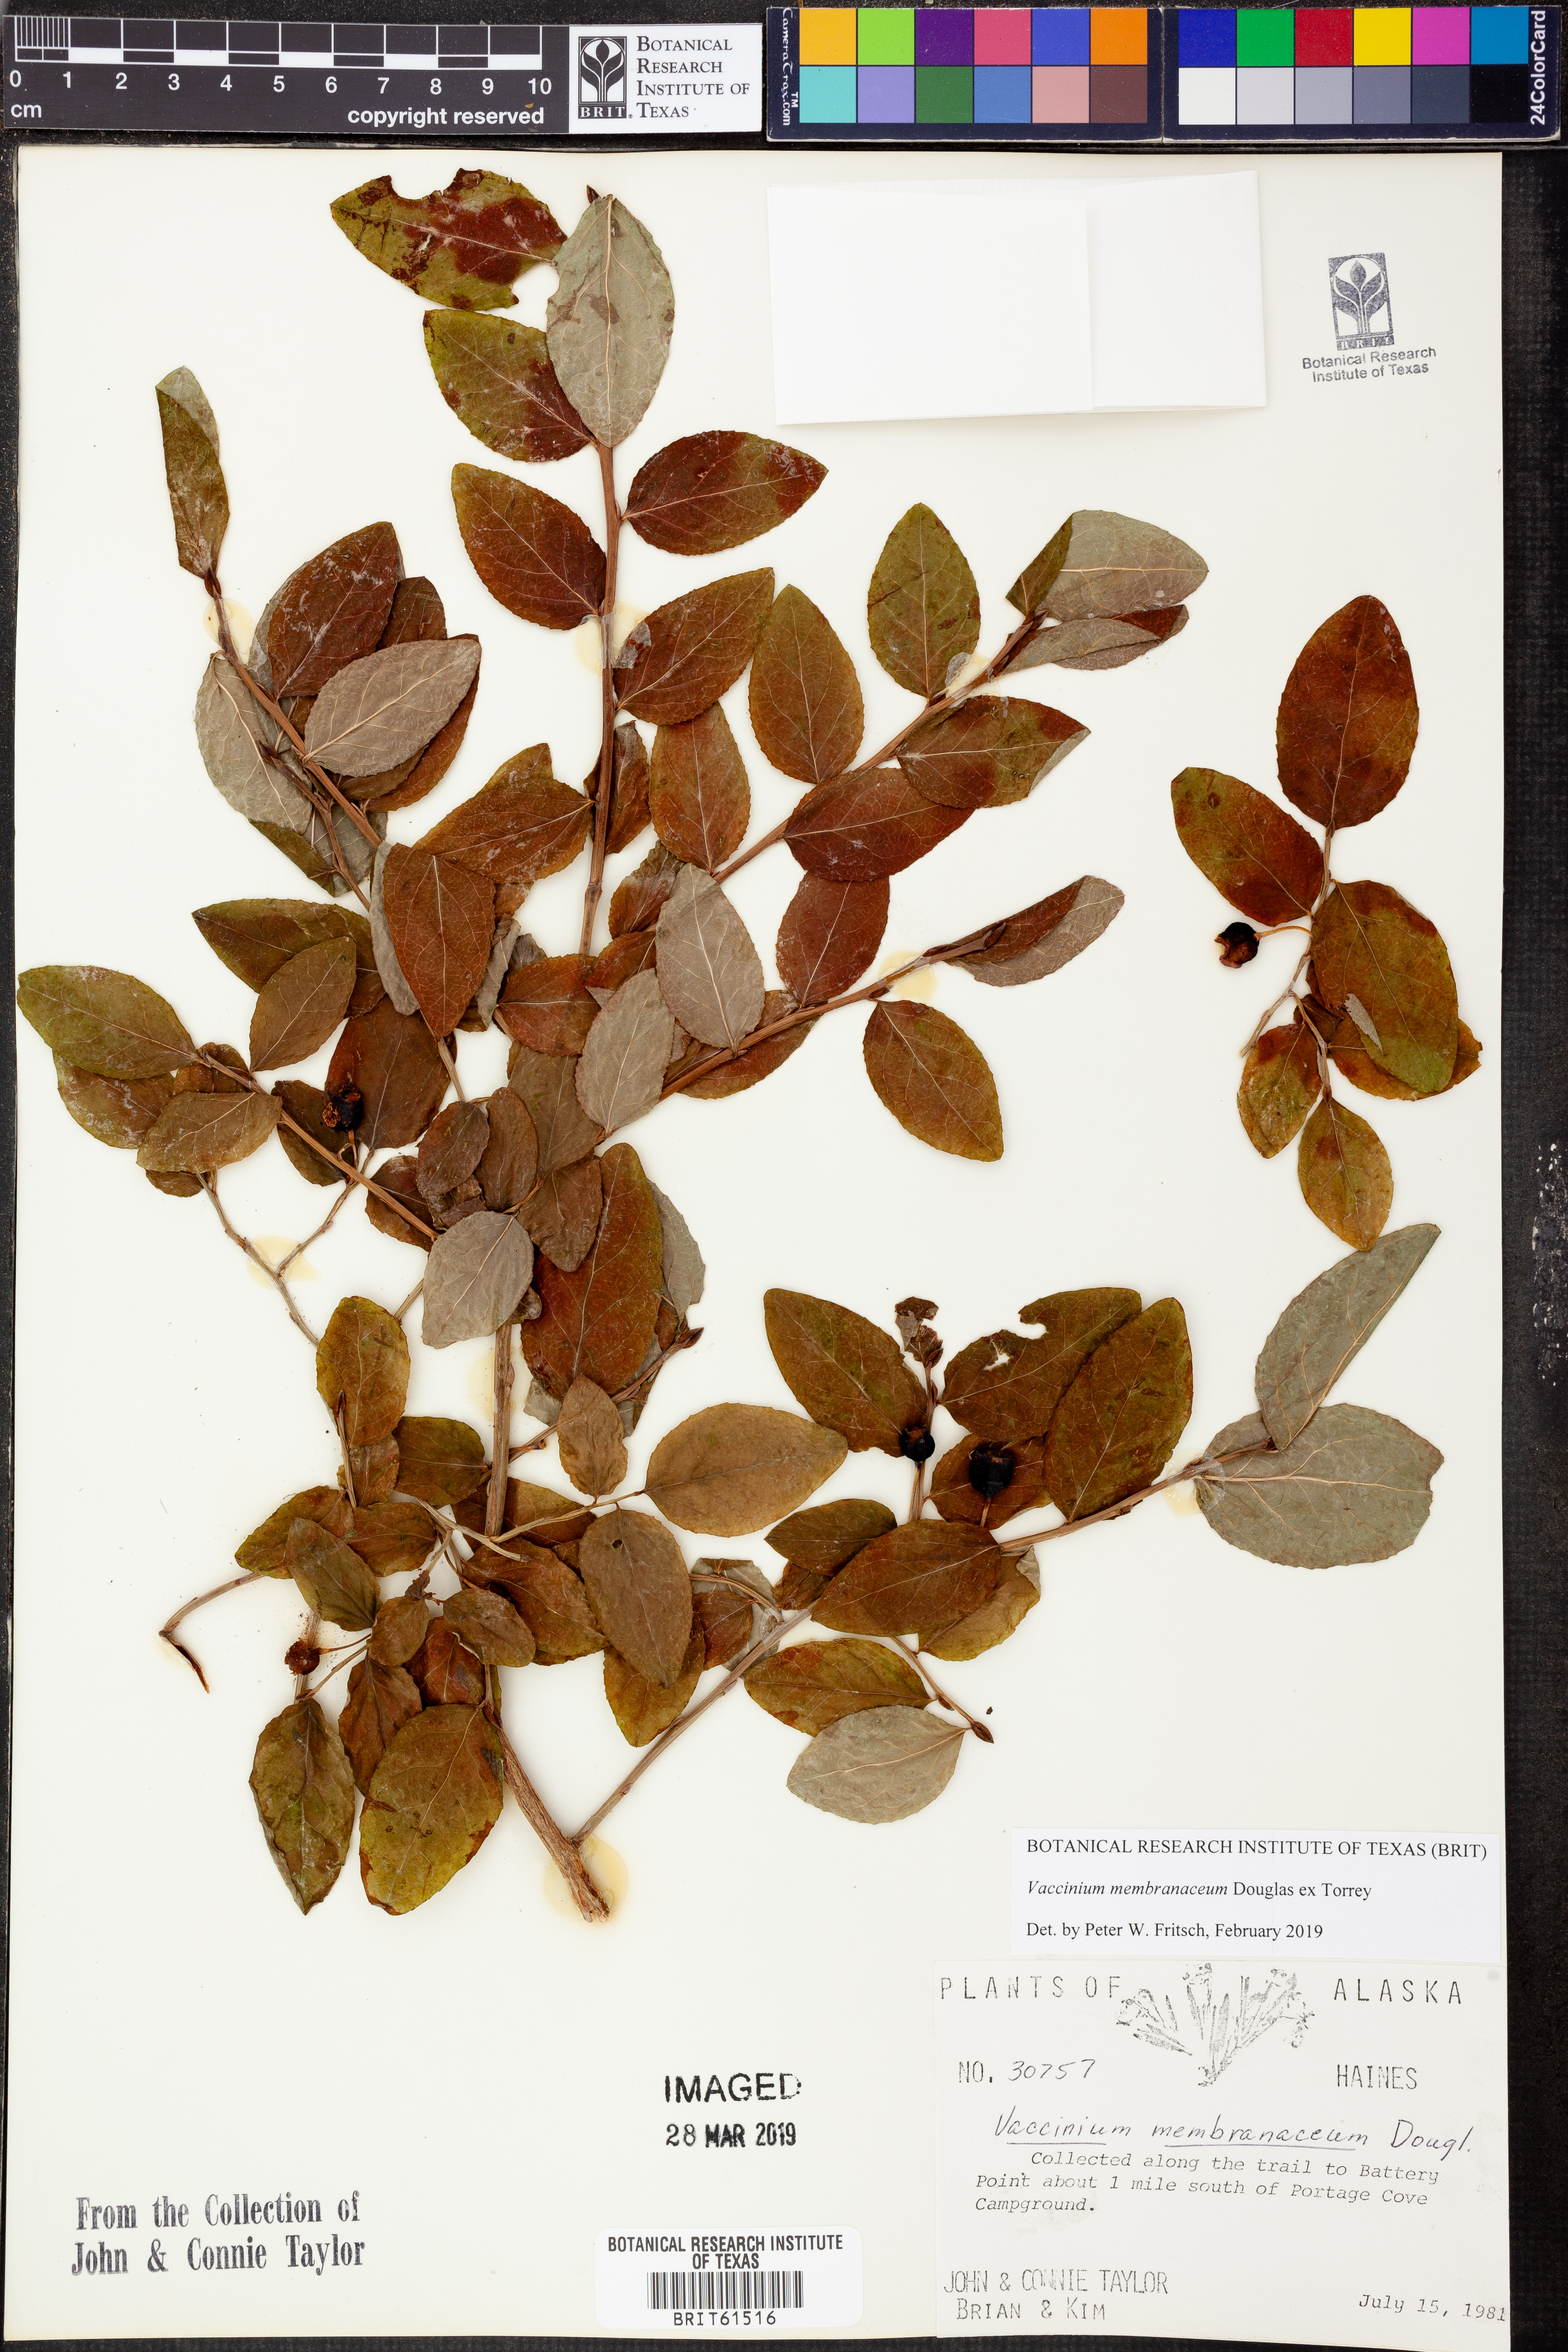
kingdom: Plantae
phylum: Tracheophyta
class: Magnoliopsida
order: Ericales
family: Ericaceae
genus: Vaccinium
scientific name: Vaccinium membranaceum
